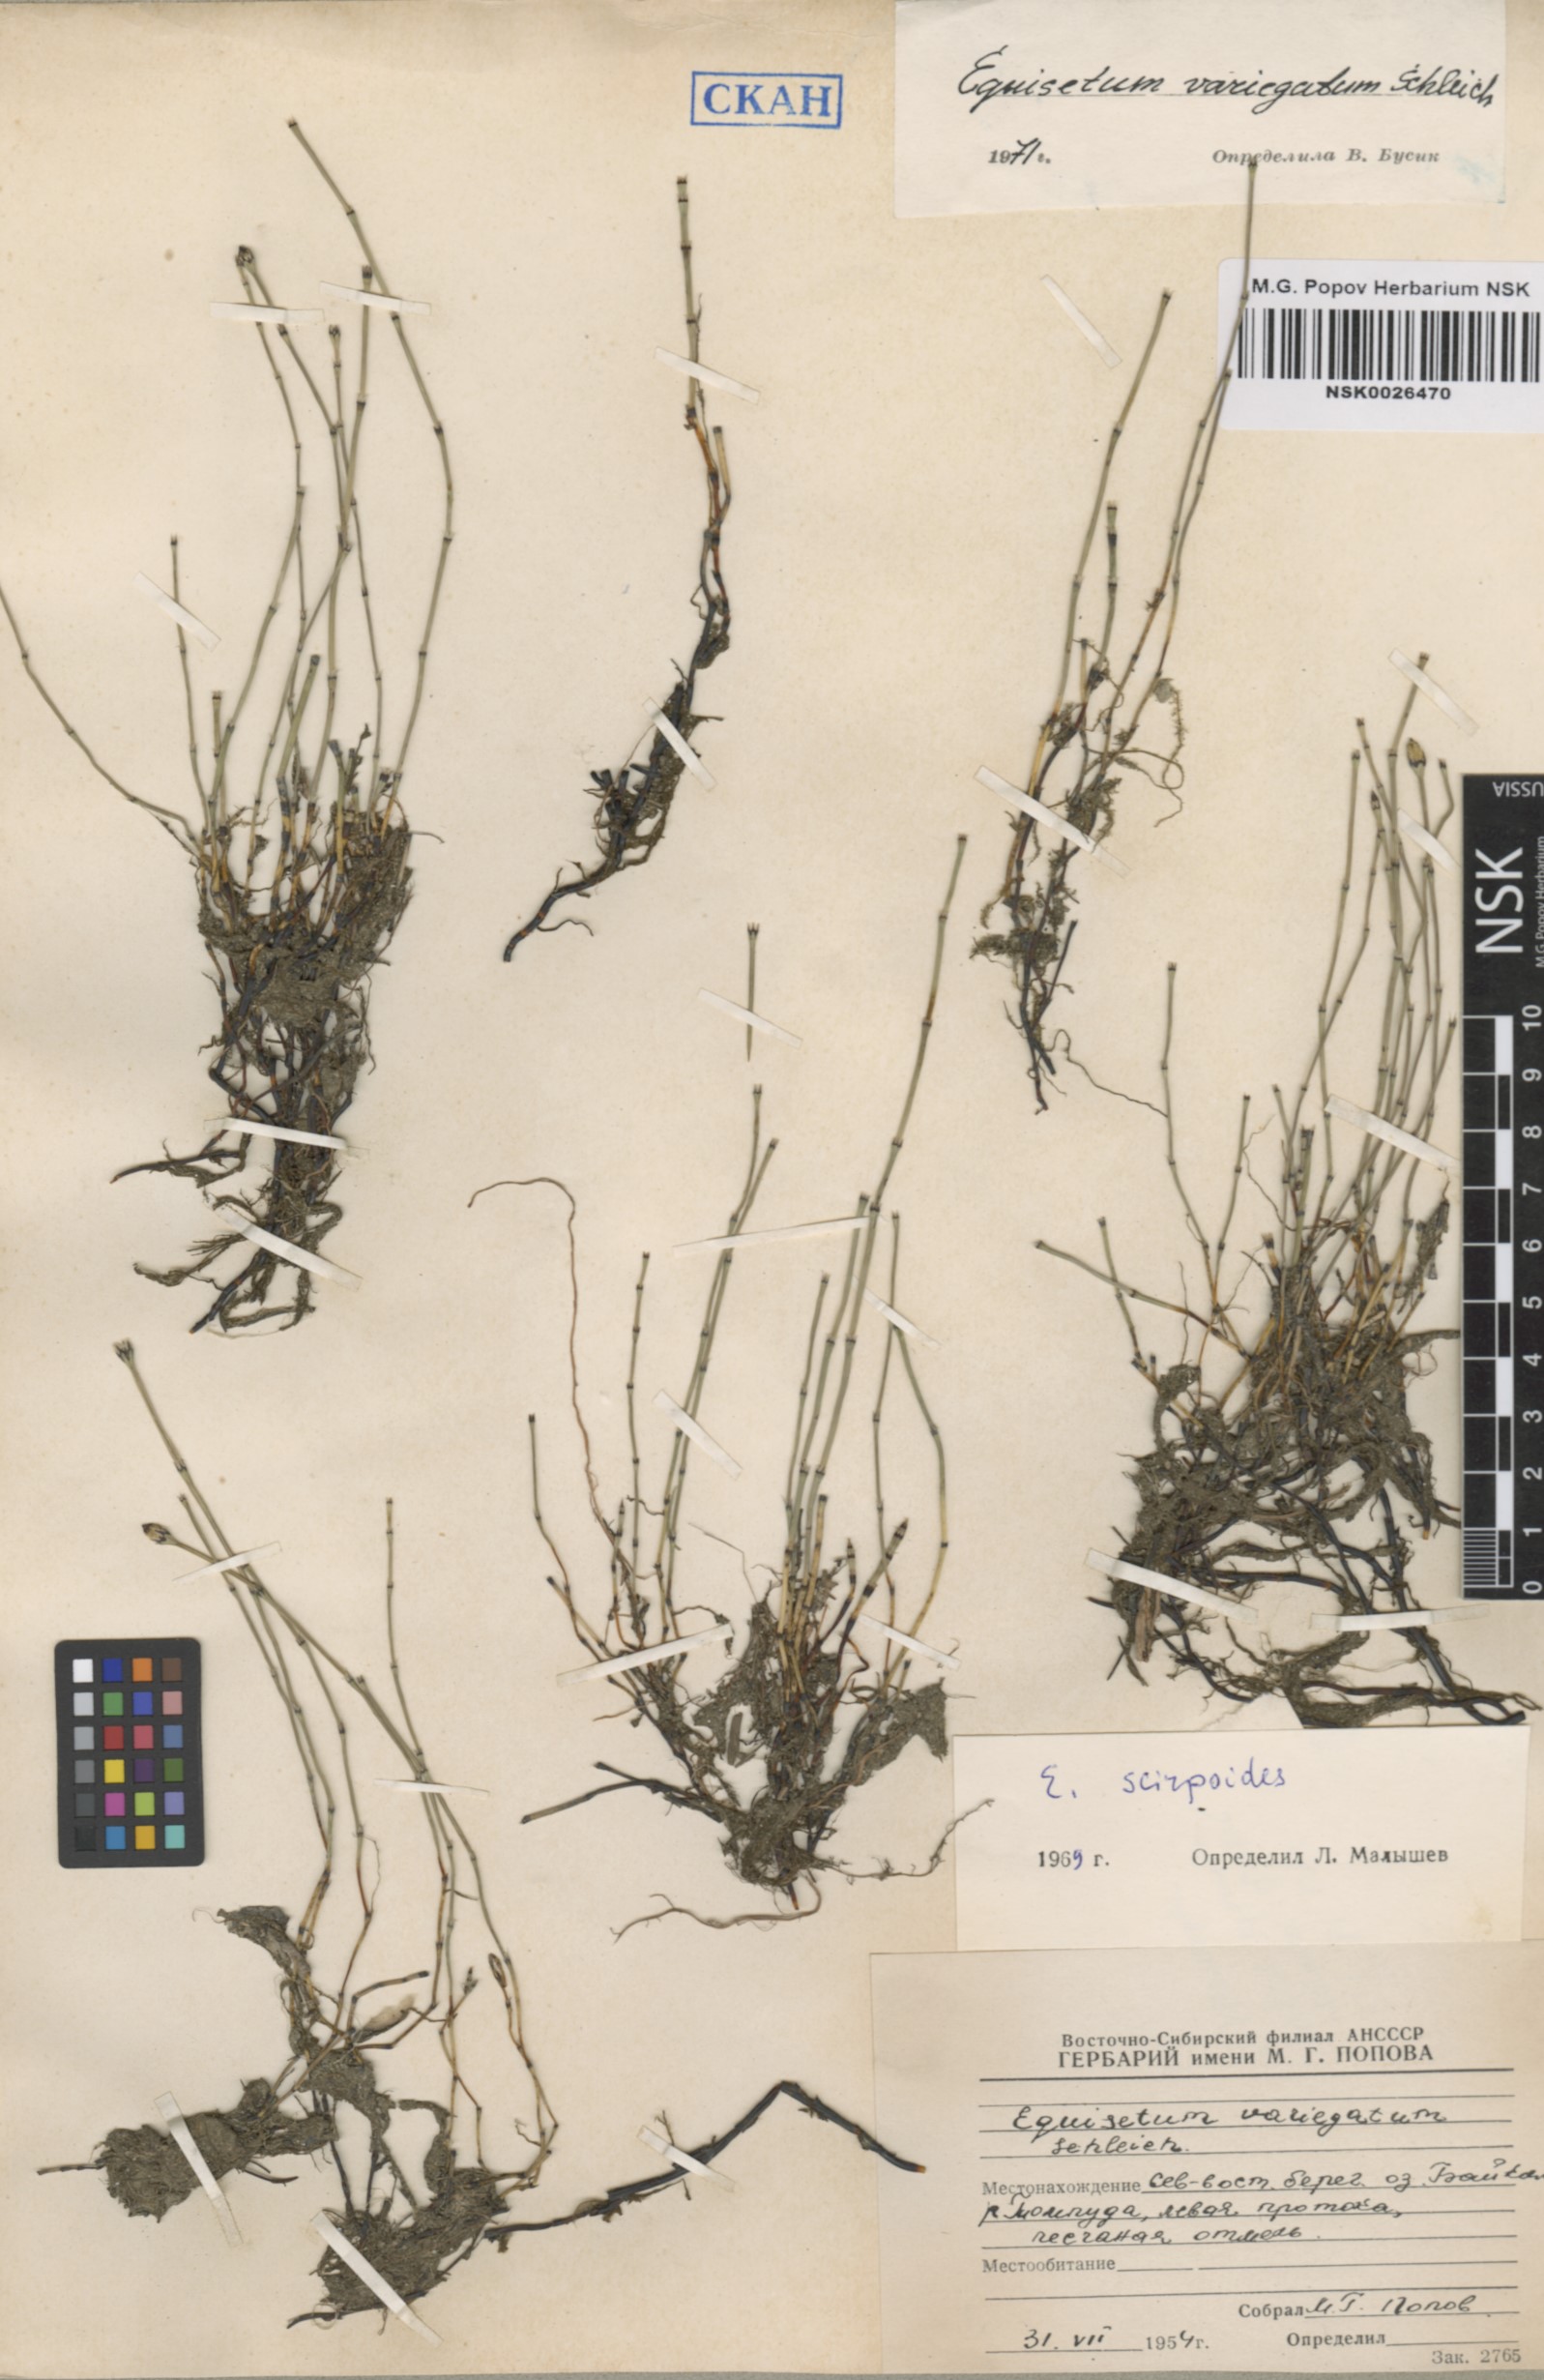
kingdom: Plantae
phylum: Tracheophyta
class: Polypodiopsida
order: Equisetales
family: Equisetaceae
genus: Equisetum
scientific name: Equisetum variegatum
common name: Variegated horsetail
